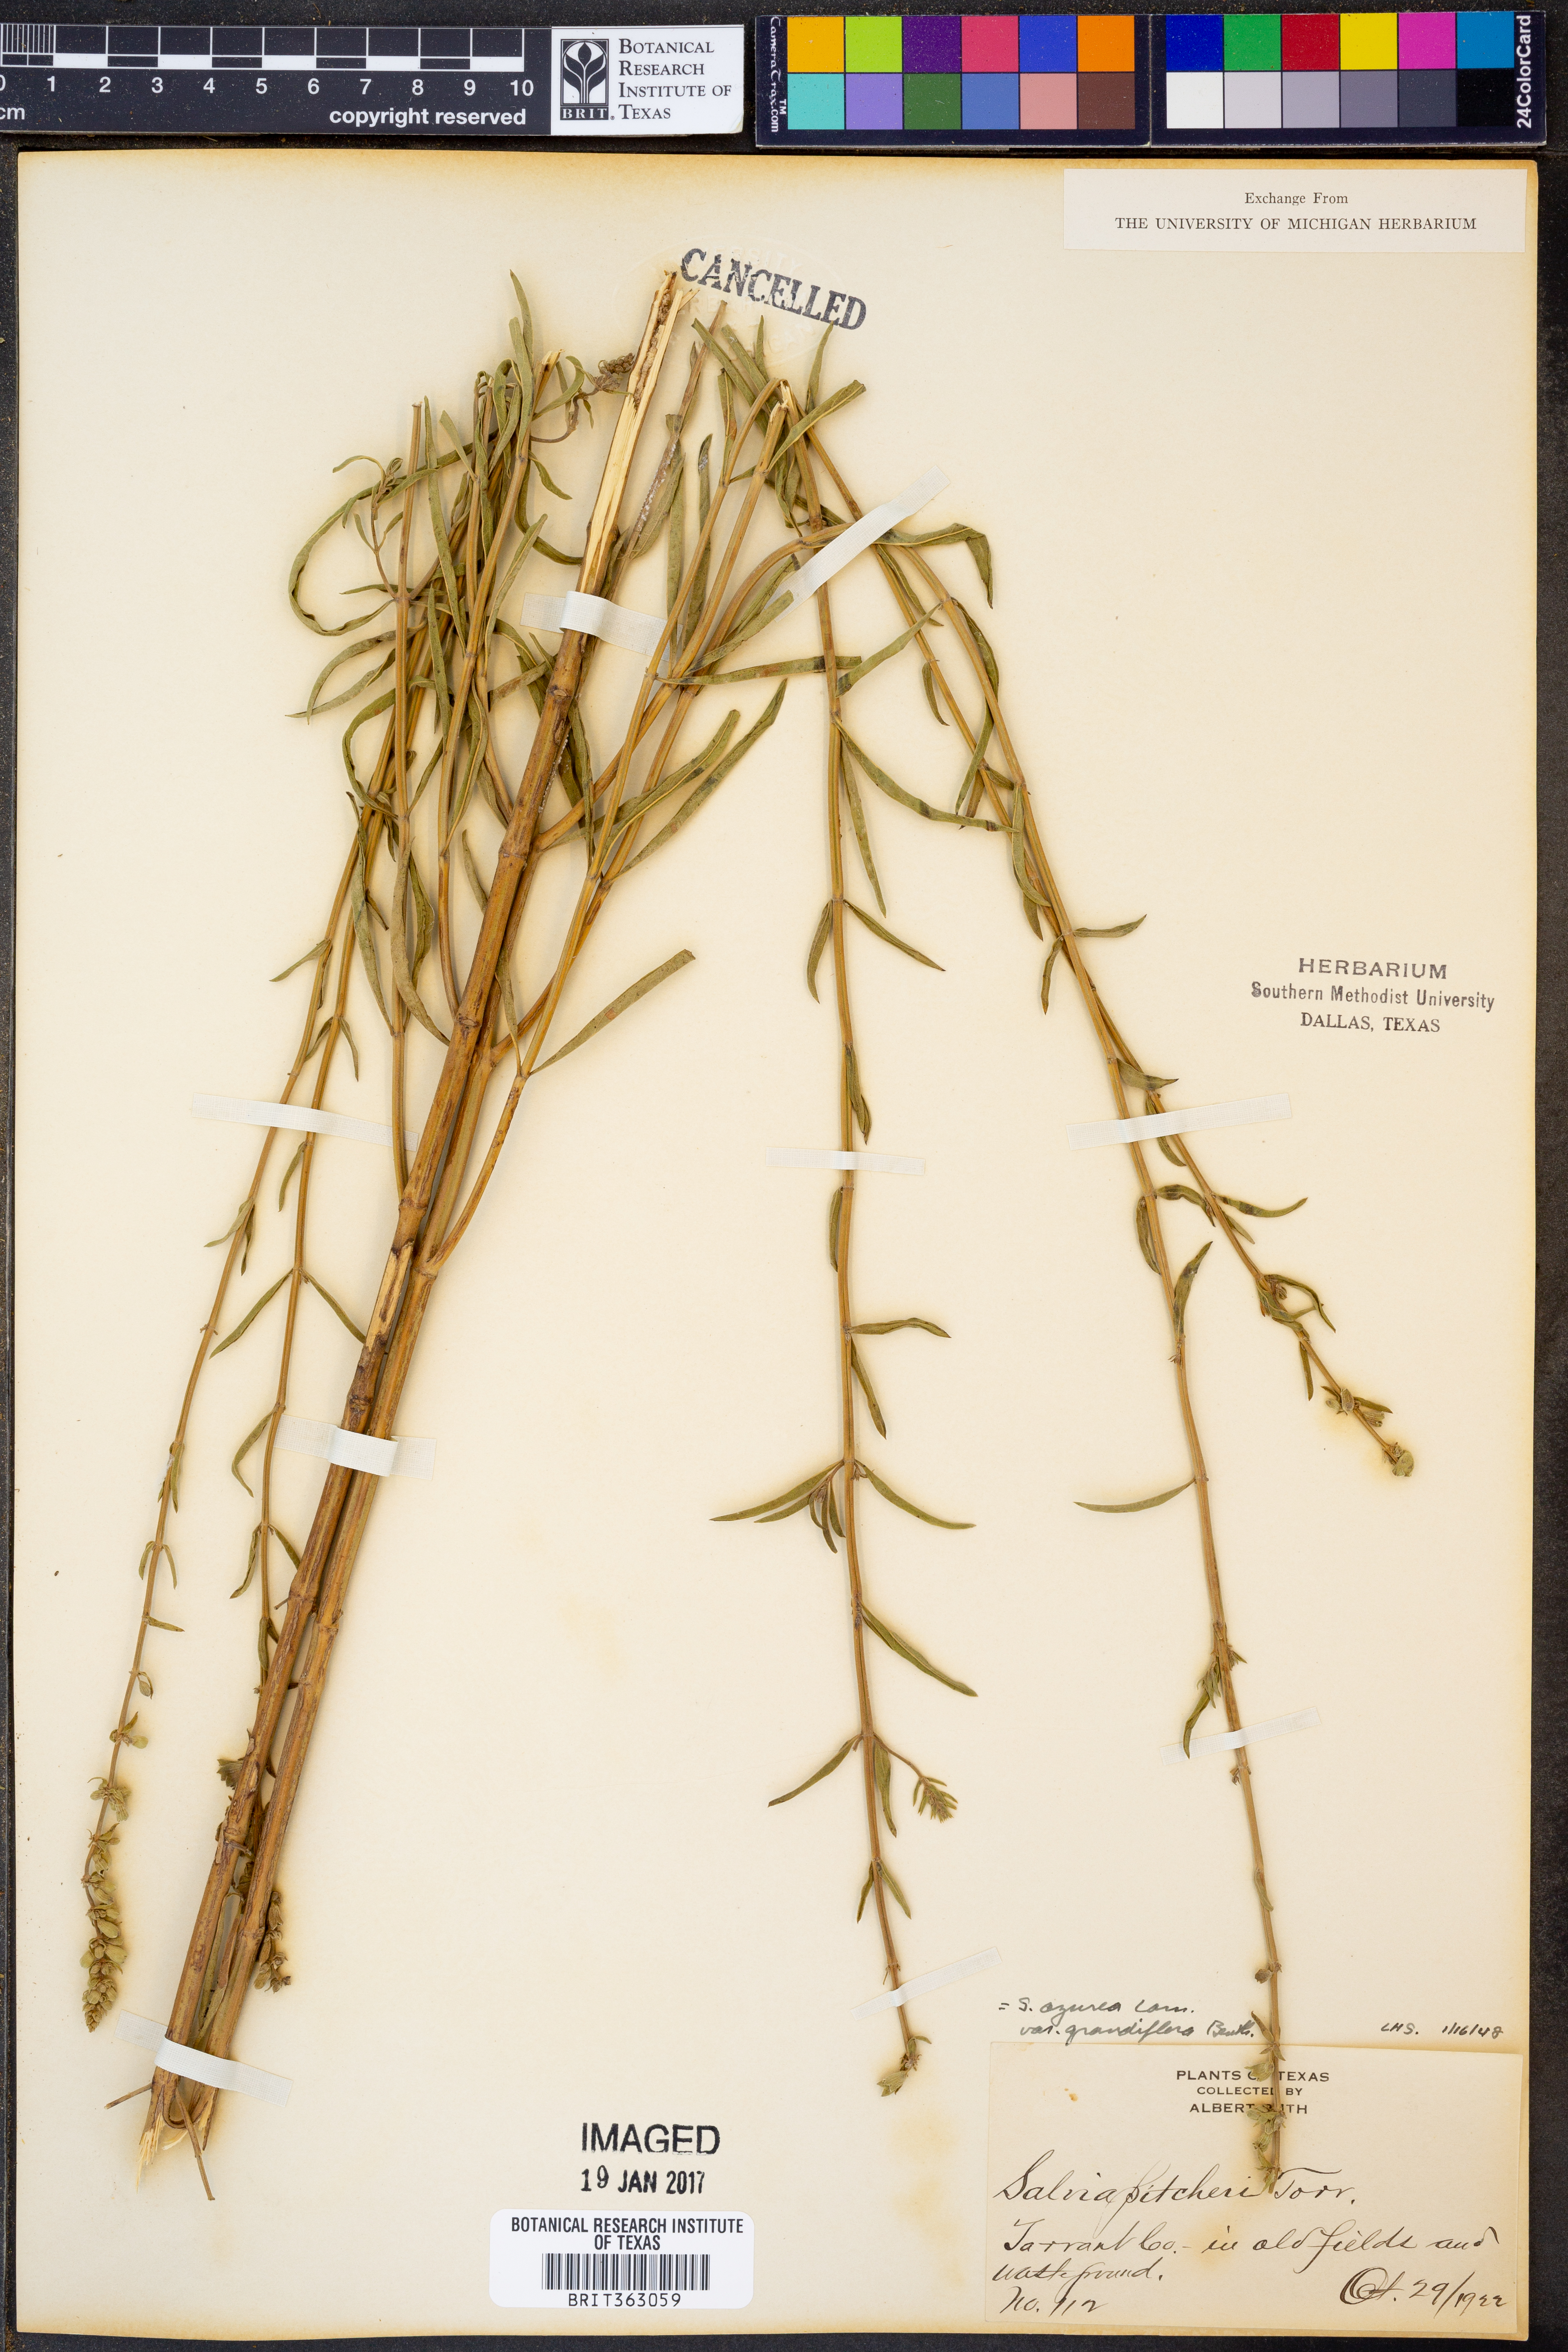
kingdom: Plantae
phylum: Tracheophyta
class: Magnoliopsida
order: Lamiales
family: Lamiaceae
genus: Salvia
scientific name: Salvia azurea
